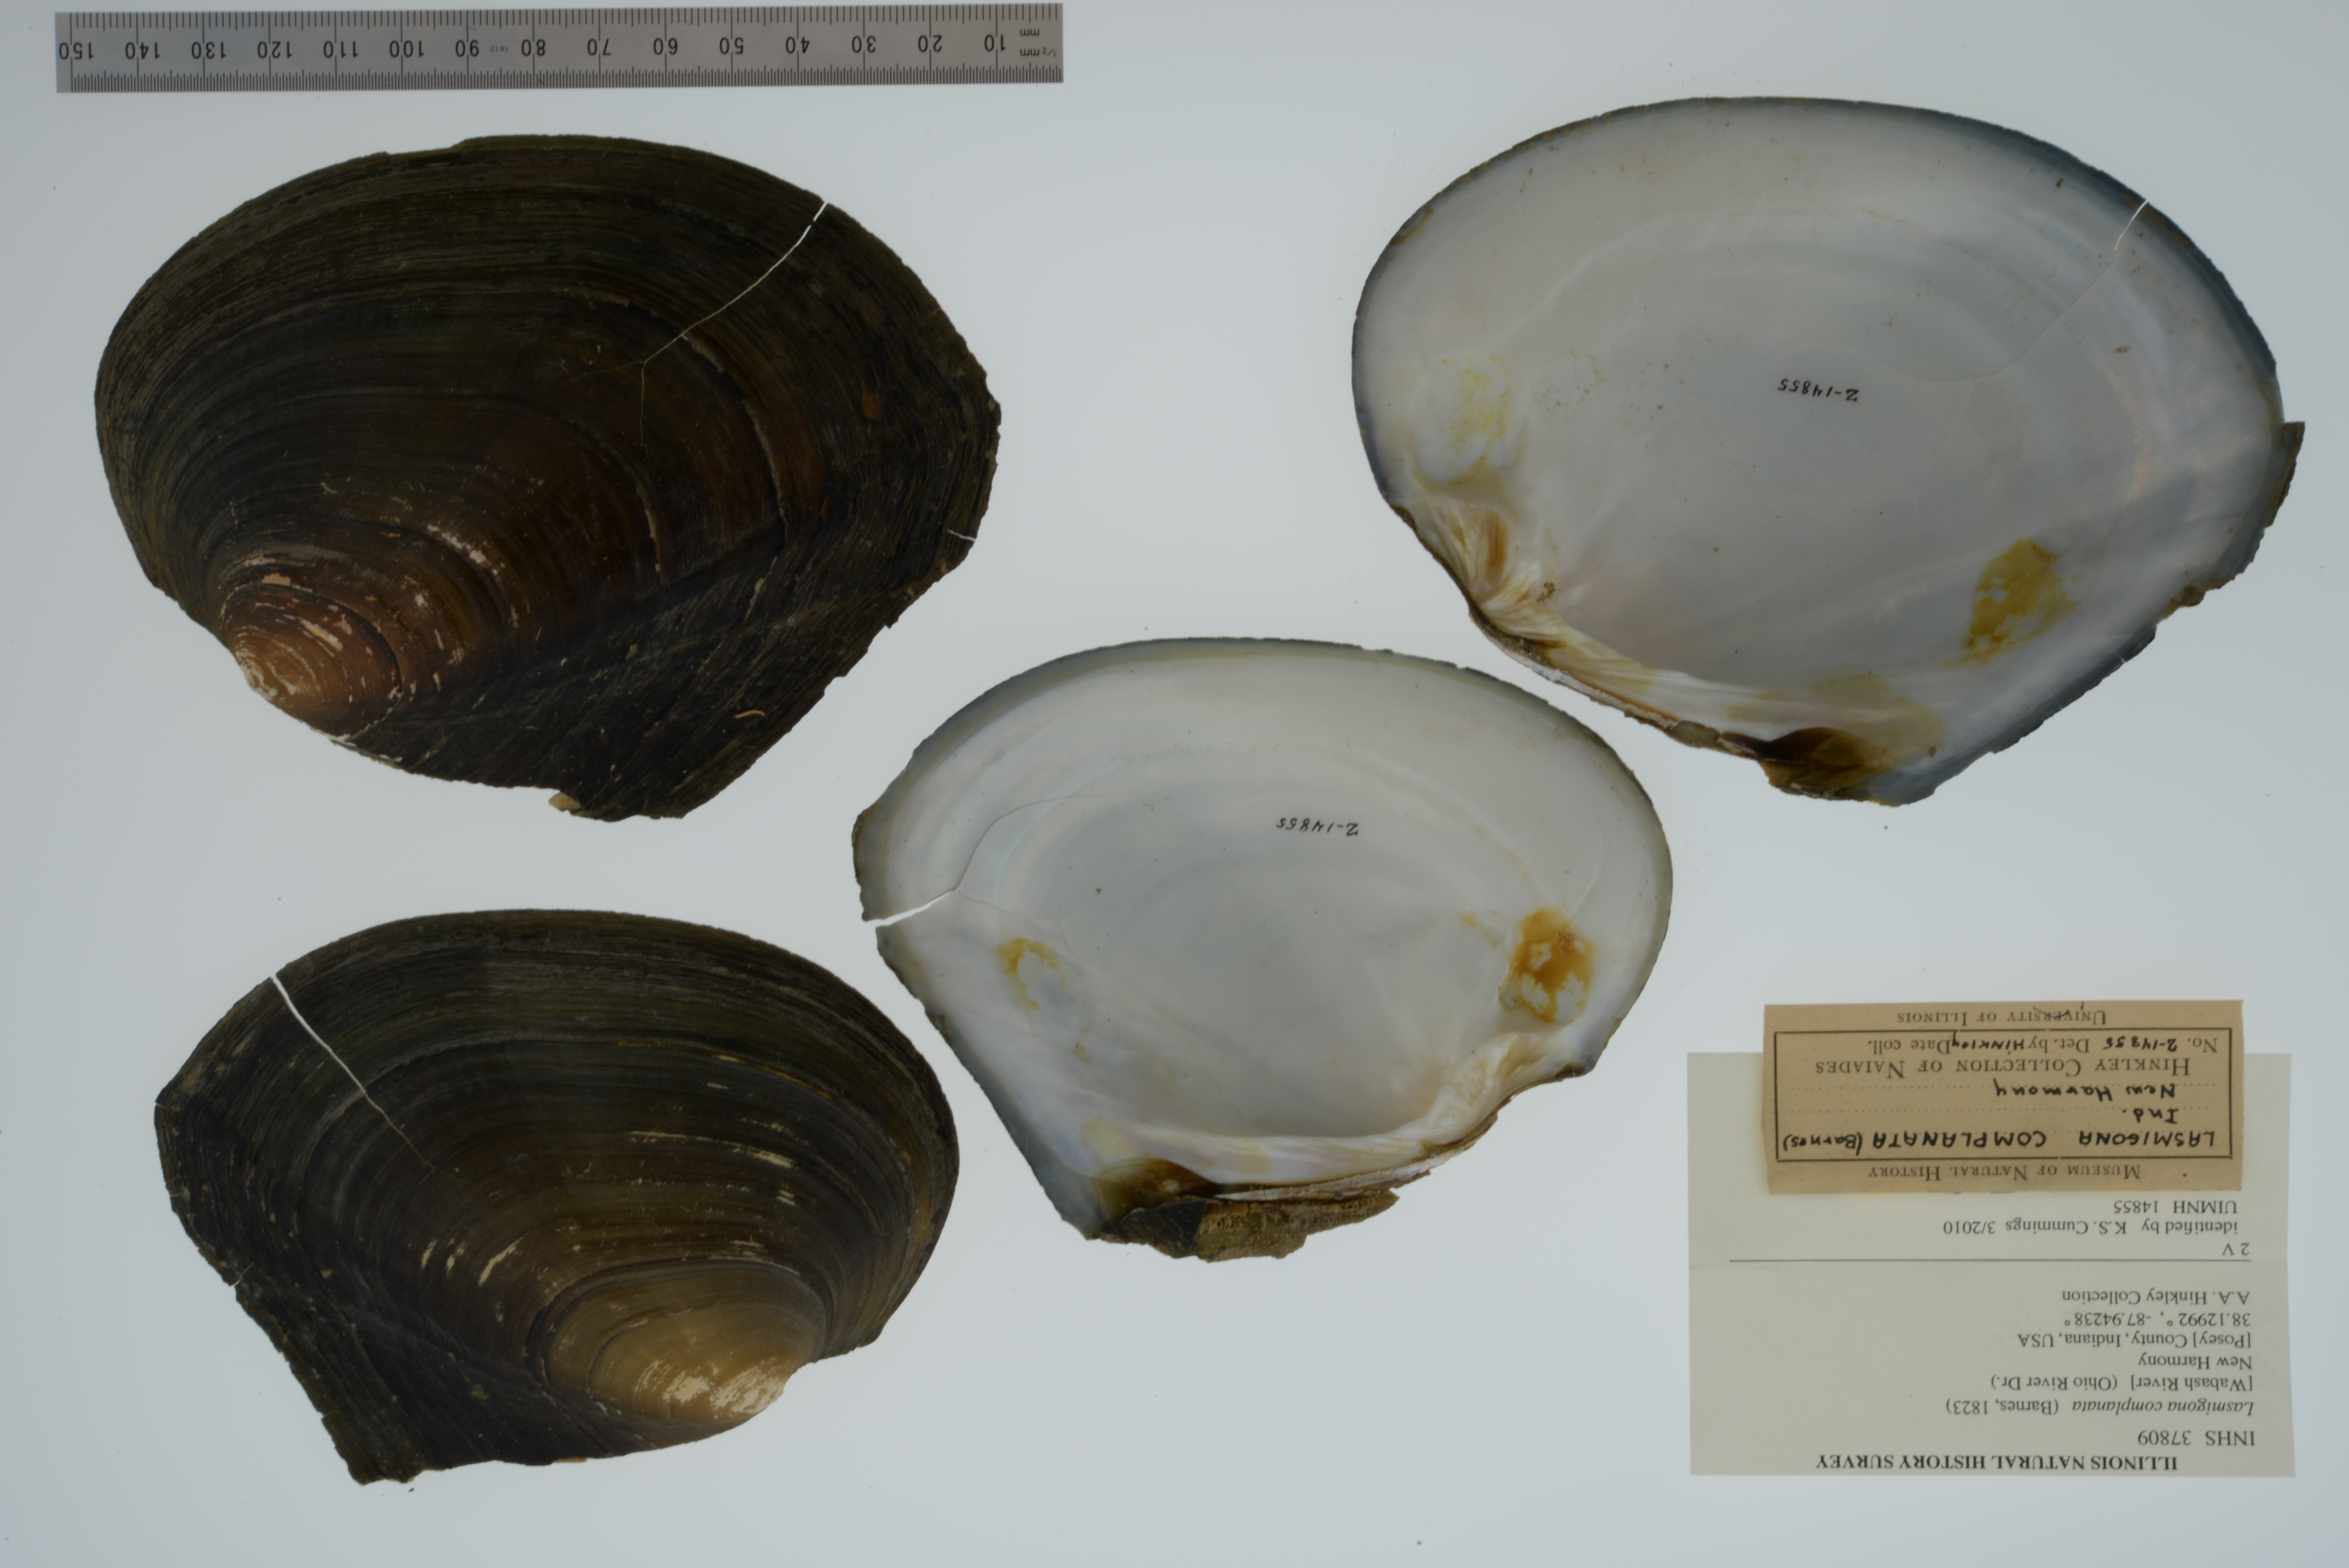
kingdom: Animalia
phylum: Mollusca
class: Bivalvia
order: Unionida
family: Unionidae
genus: Lasmigona
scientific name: Lasmigona complanata
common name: White heelsplitter
